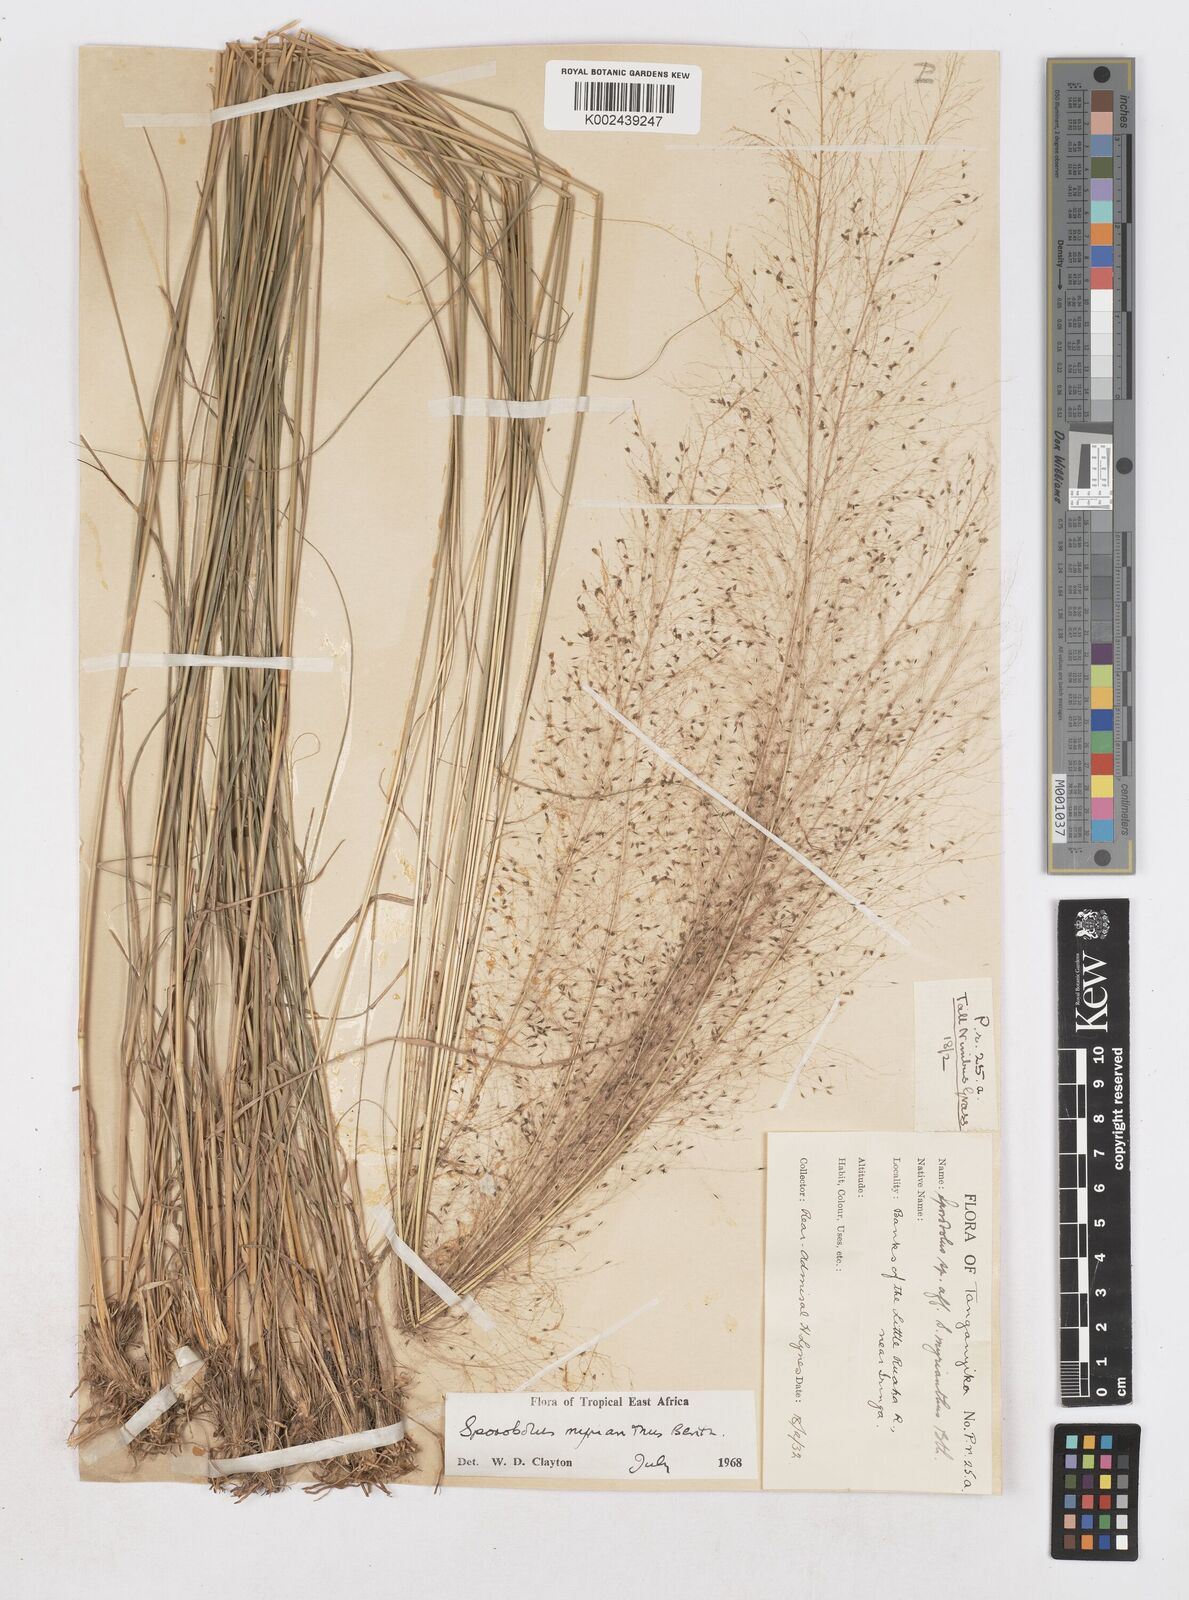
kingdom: Plantae
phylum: Tracheophyta
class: Liliopsida
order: Poales
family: Poaceae
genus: Sporobolus
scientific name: Sporobolus myrianthus
